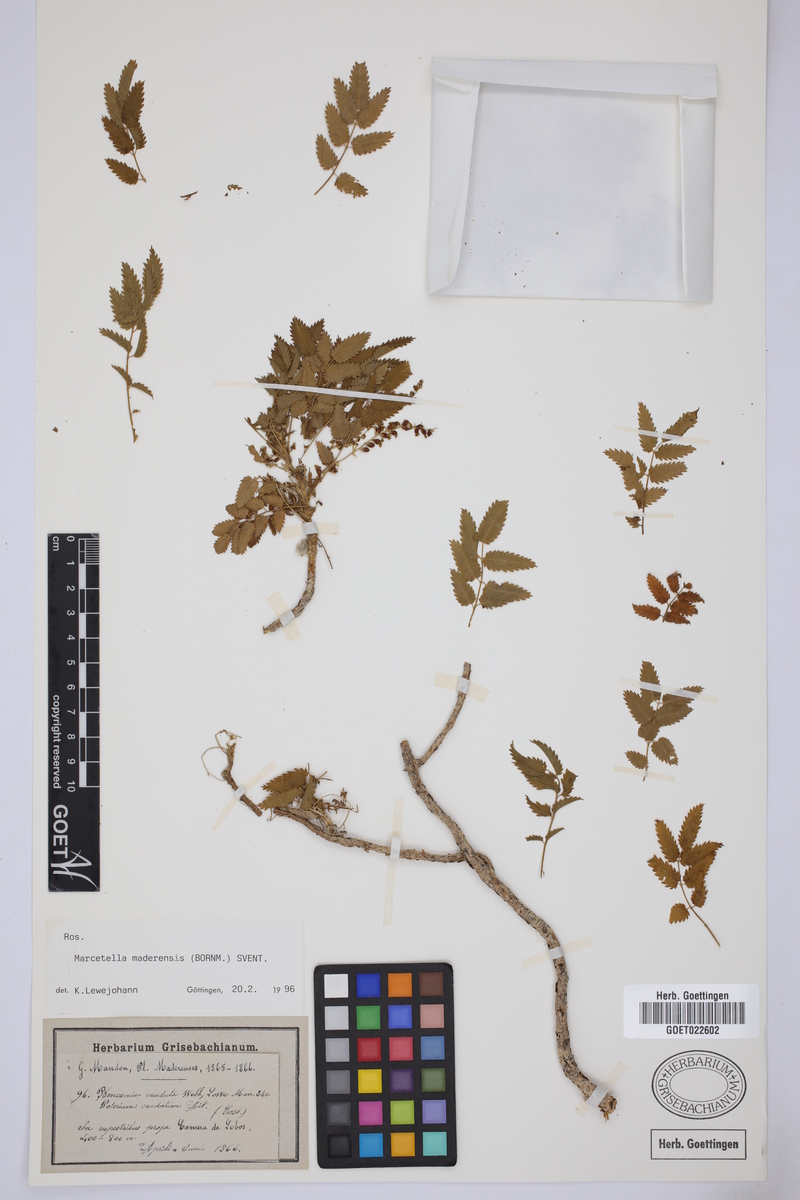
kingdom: Plantae
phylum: Tracheophyta
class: Magnoliopsida
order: Rosales
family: Rosaceae
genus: Marcetella
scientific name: Marcetella maderensis
